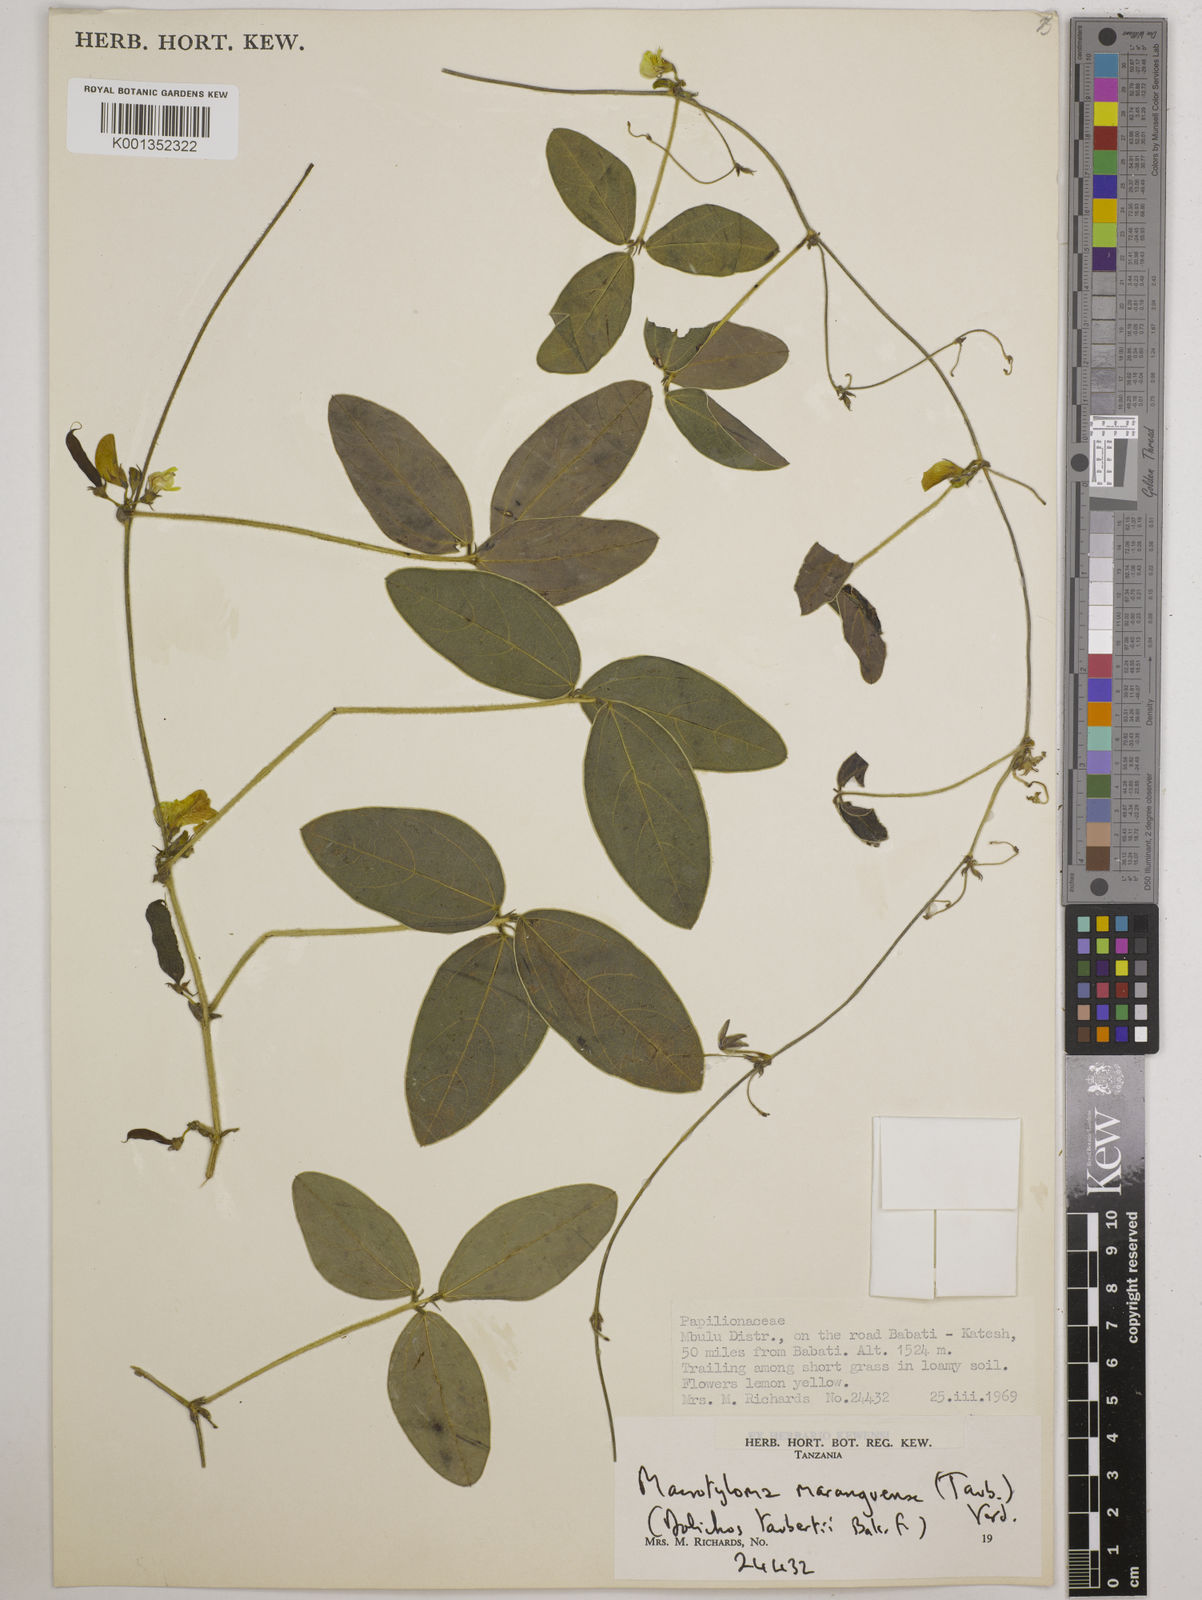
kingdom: Plantae
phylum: Tracheophyta
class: Magnoliopsida
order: Fabales
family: Fabaceae
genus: Macrotyloma
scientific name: Macrotyloma maranguense
